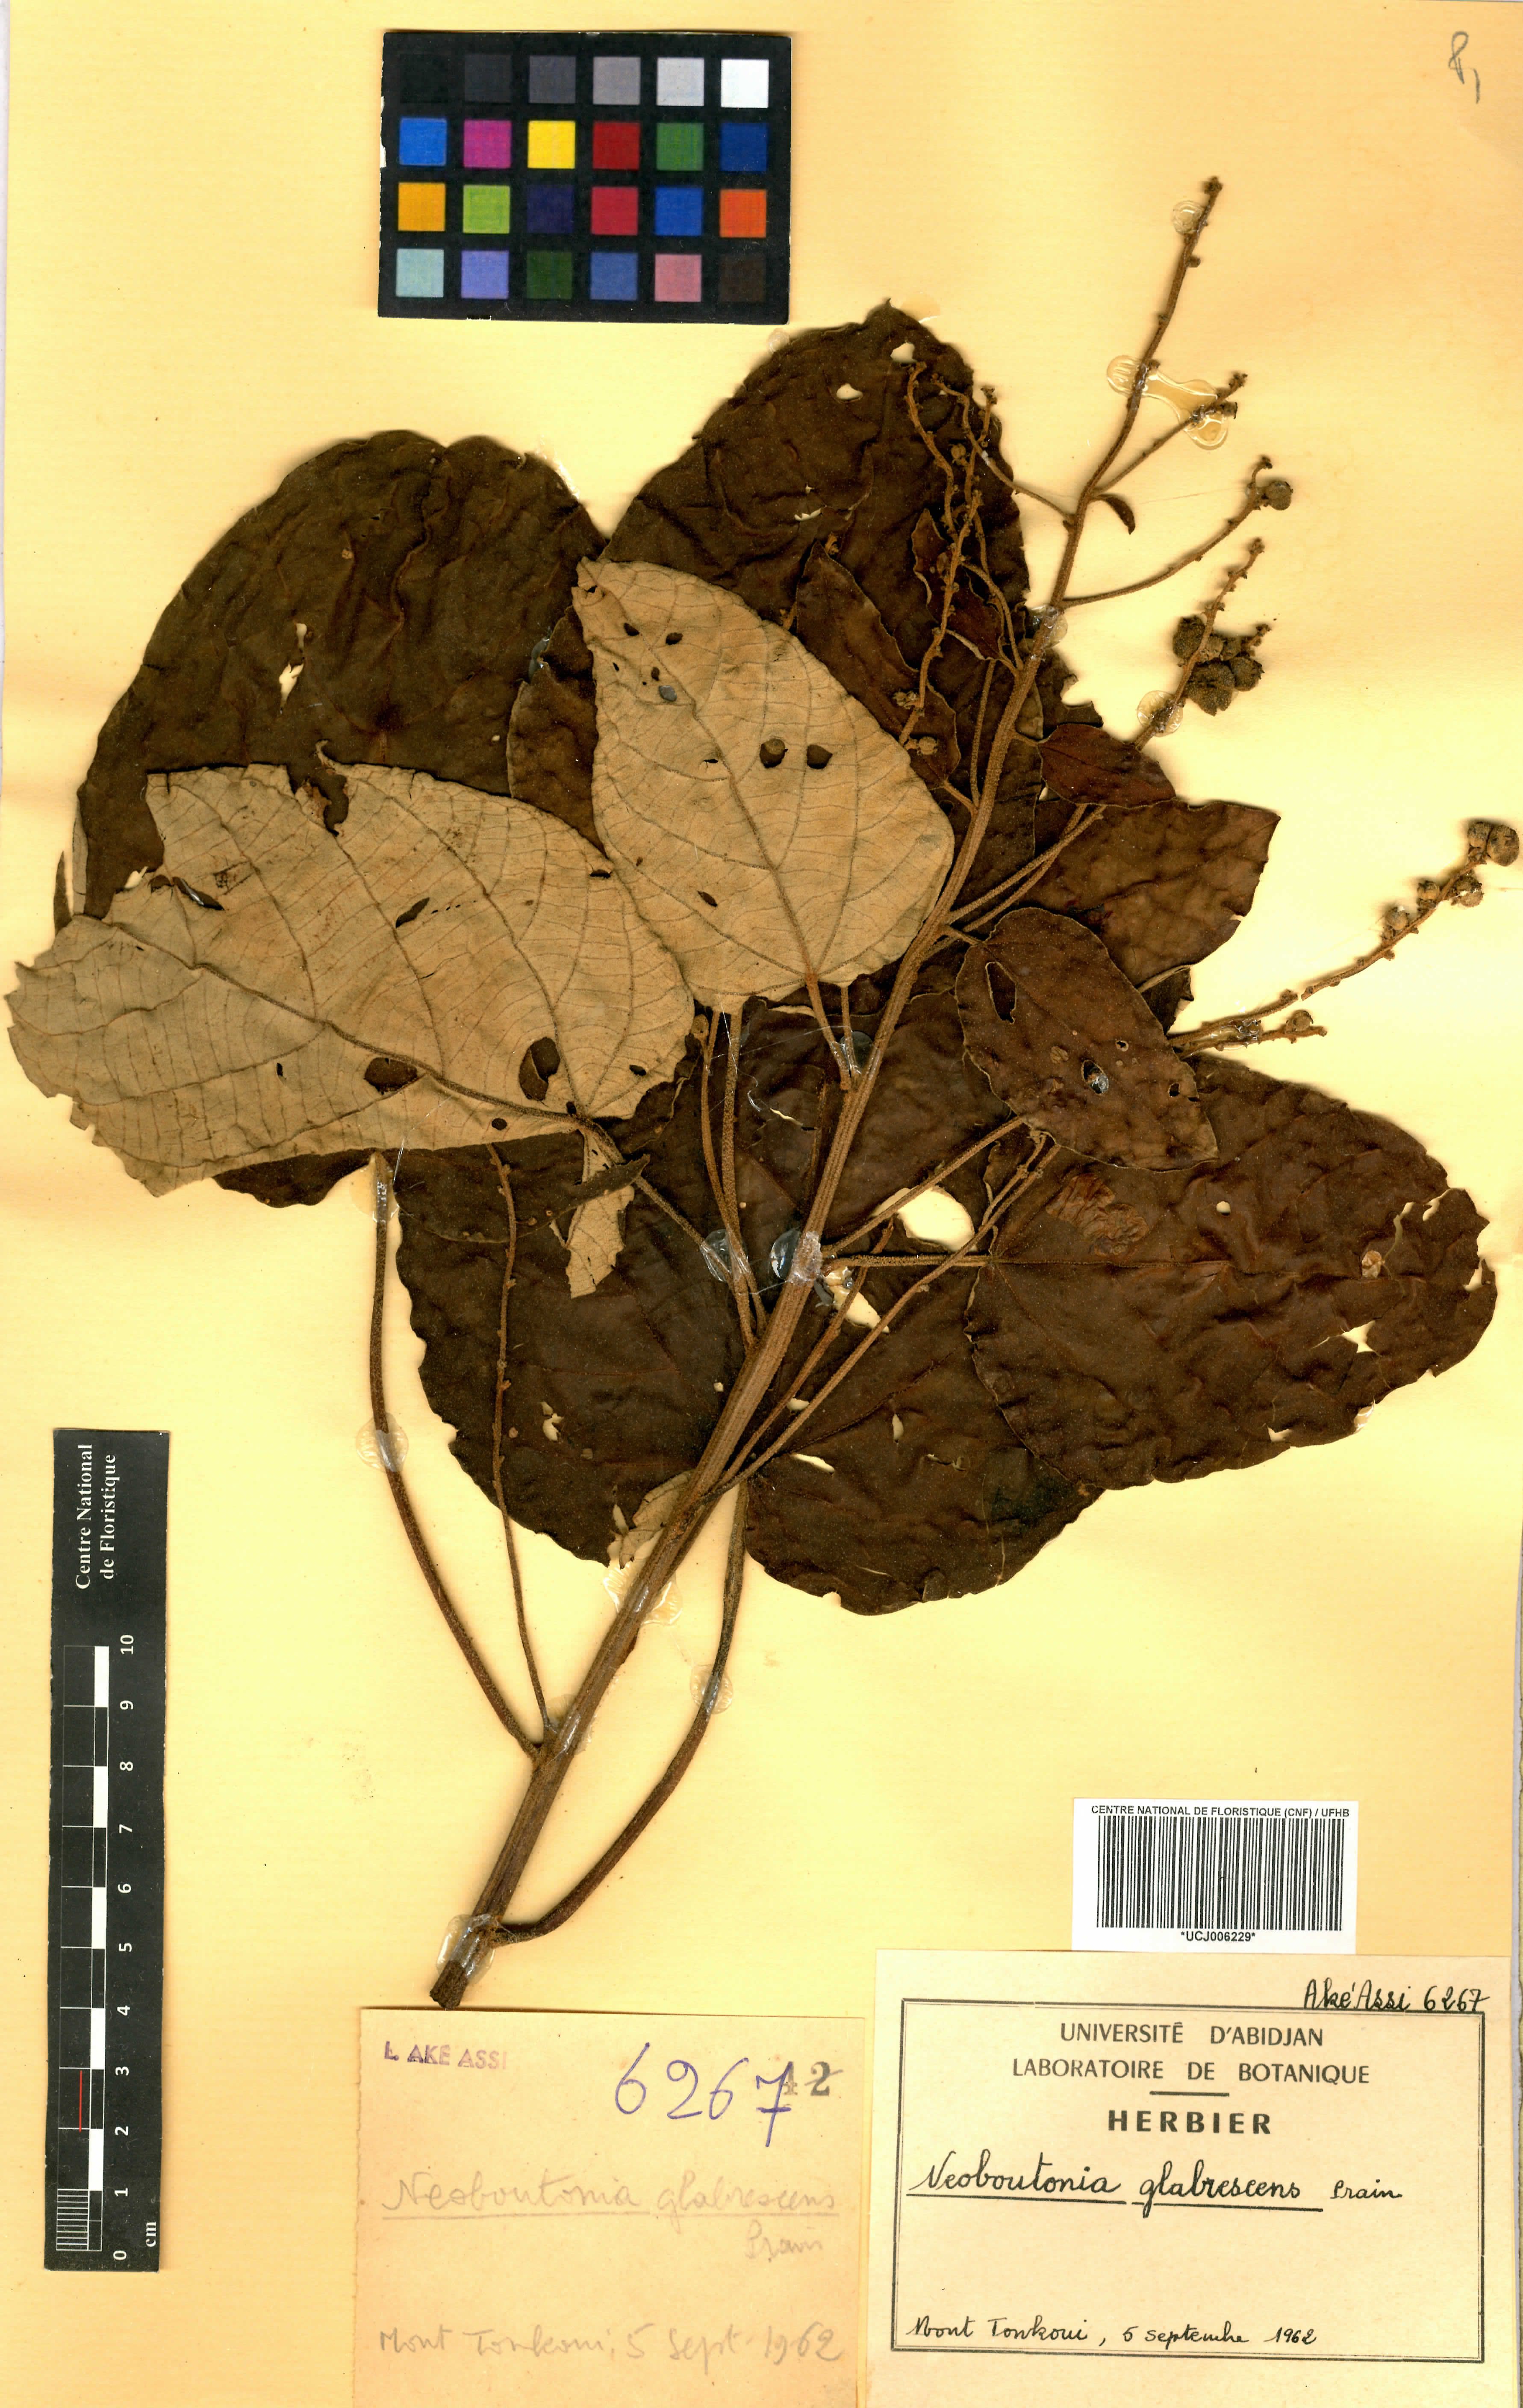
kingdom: Plantae
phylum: Tracheophyta
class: Magnoliopsida
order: Malpighiales
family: Euphorbiaceae
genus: Neoboutonia
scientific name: Neoboutonia mannii
